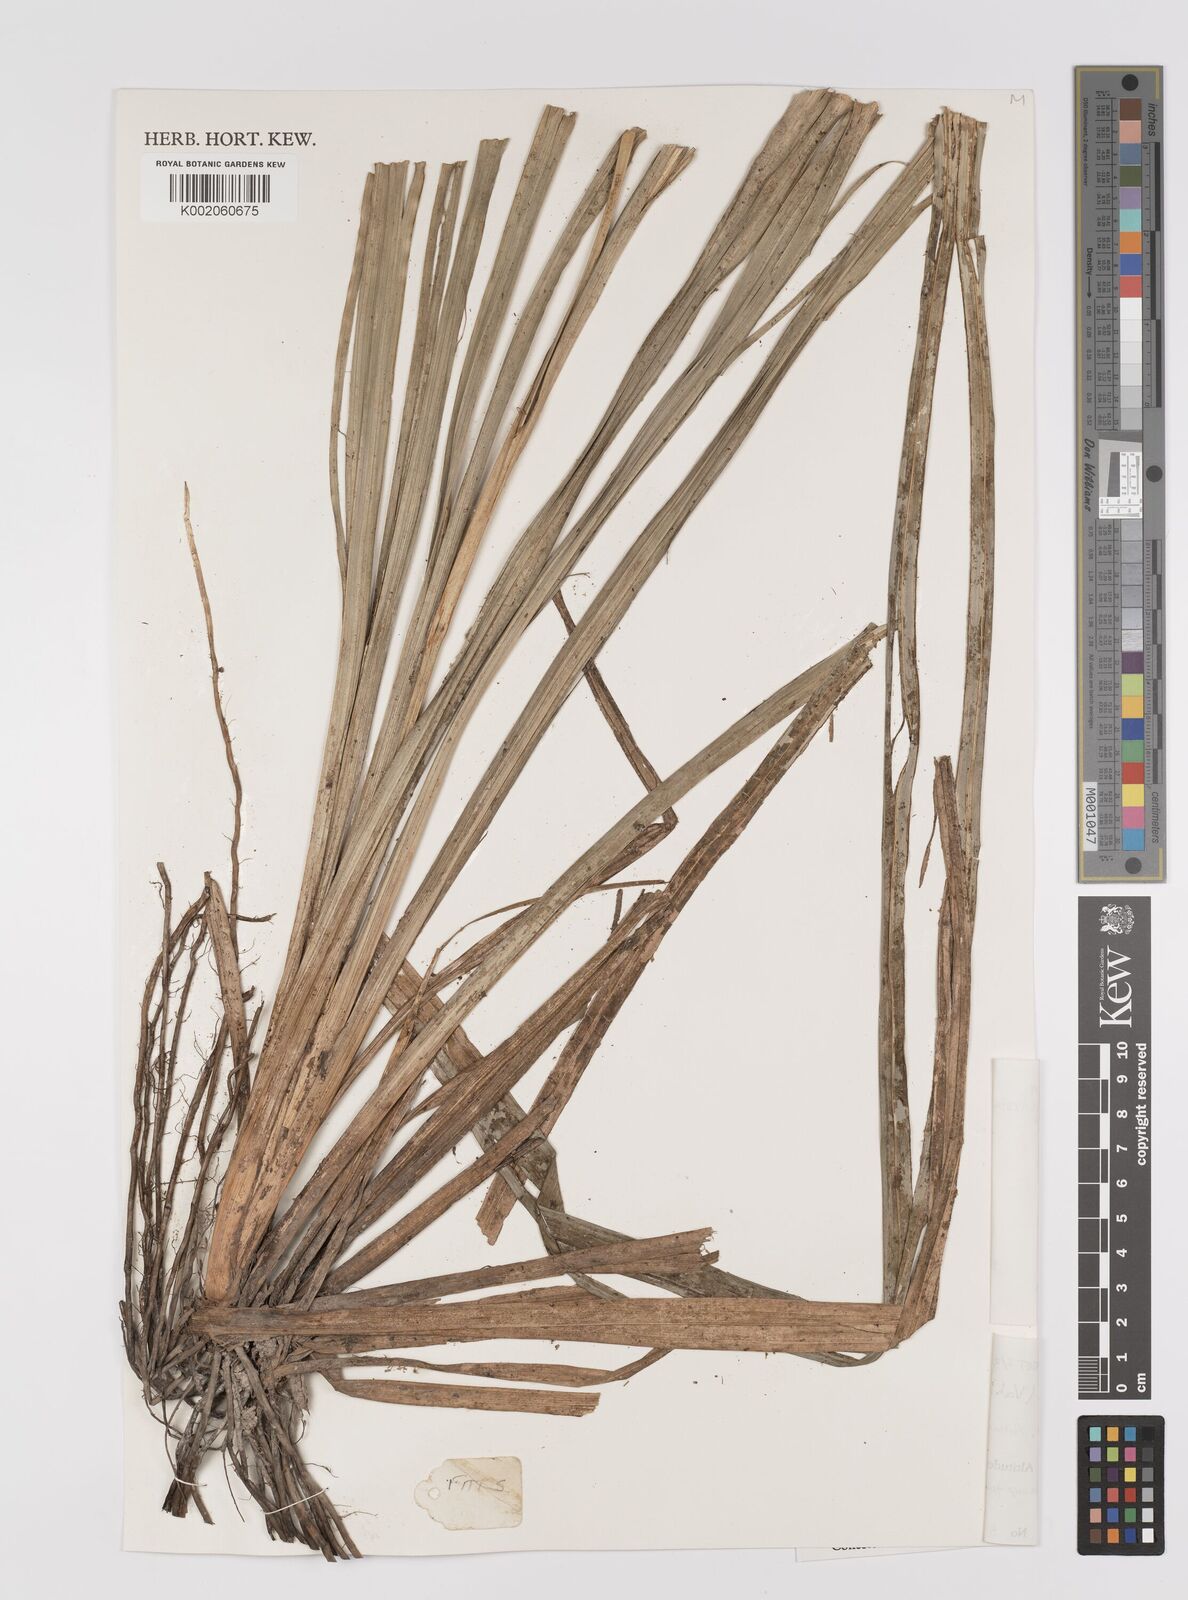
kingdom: Plantae
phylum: Tracheophyta
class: Liliopsida
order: Poales
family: Cyperaceae
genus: Hypolytrum
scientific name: Hypolytrum nemorum
